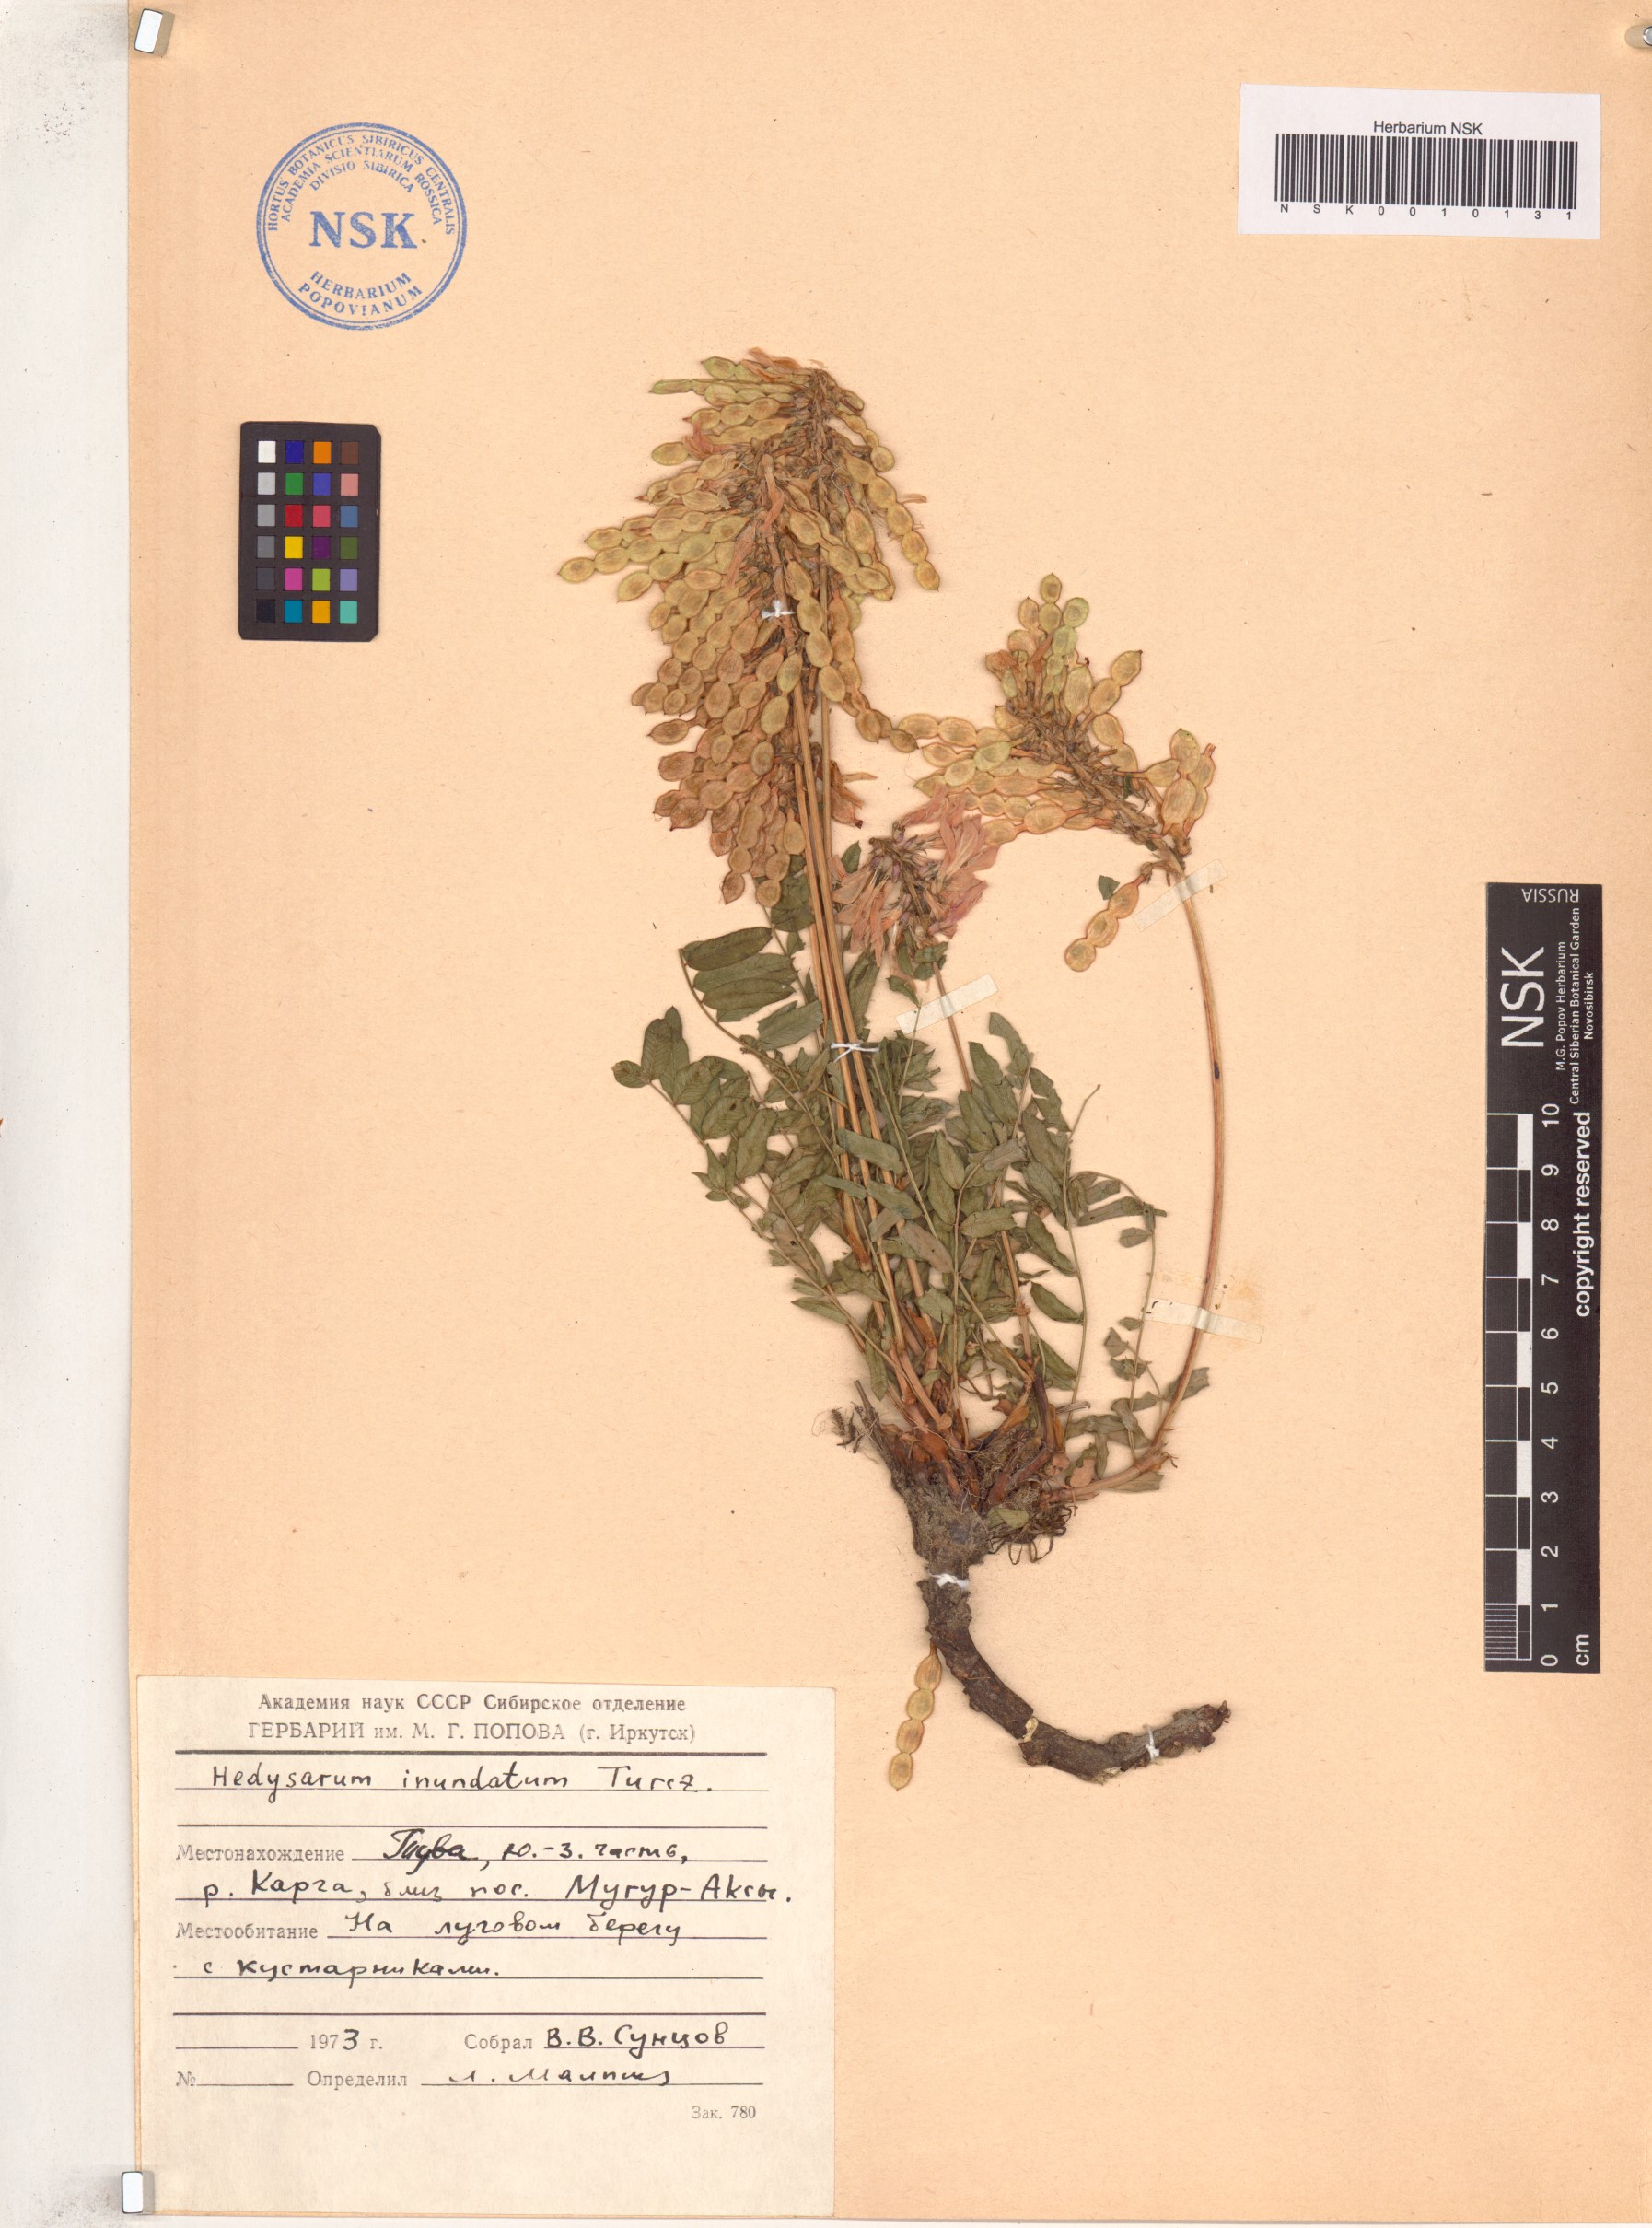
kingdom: Plantae
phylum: Tracheophyta
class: Magnoliopsida
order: Fabales
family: Fabaceae
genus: Hedysarum
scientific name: Hedysarum inundatum
